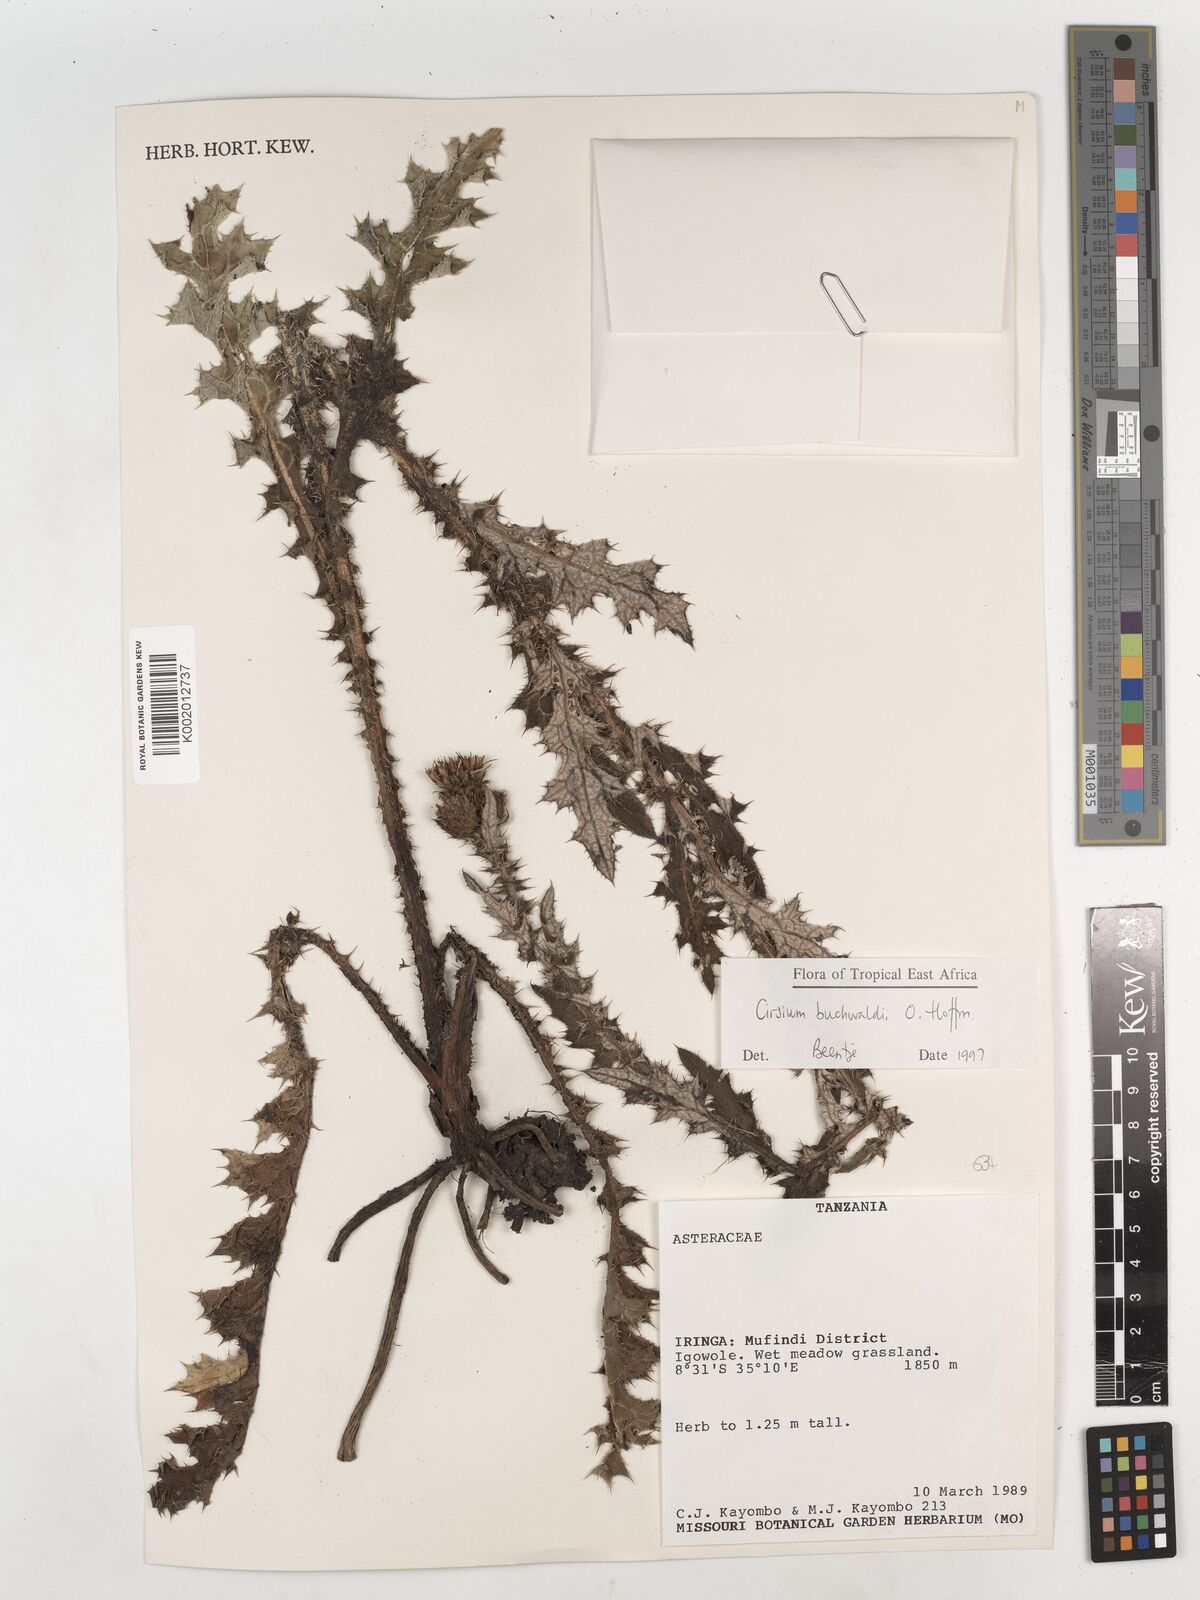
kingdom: Plantae
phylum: Tracheophyta
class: Magnoliopsida
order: Asterales
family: Asteraceae
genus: Cirsium
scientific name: Cirsium buchwaldii
